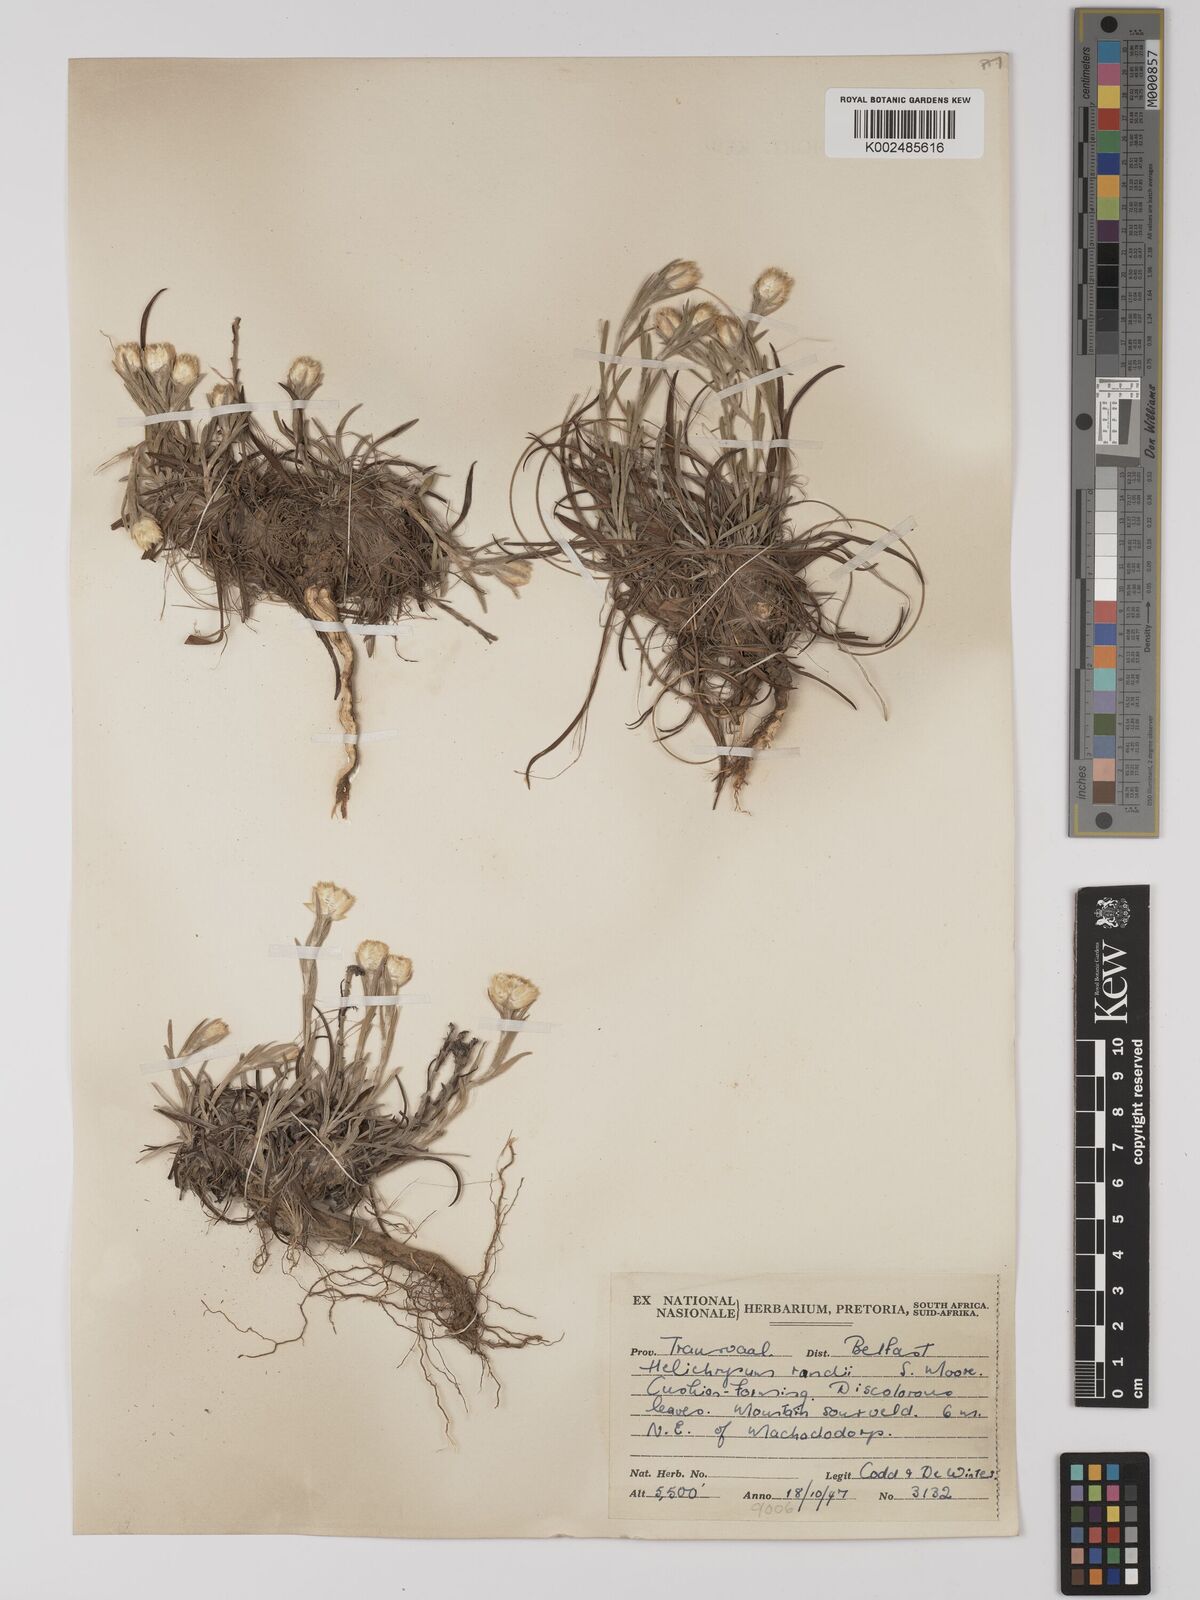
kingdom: Plantae
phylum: Tracheophyta
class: Magnoliopsida
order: Asterales
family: Asteraceae
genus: Helichrysum
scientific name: Helichrysum chionosphaerum
